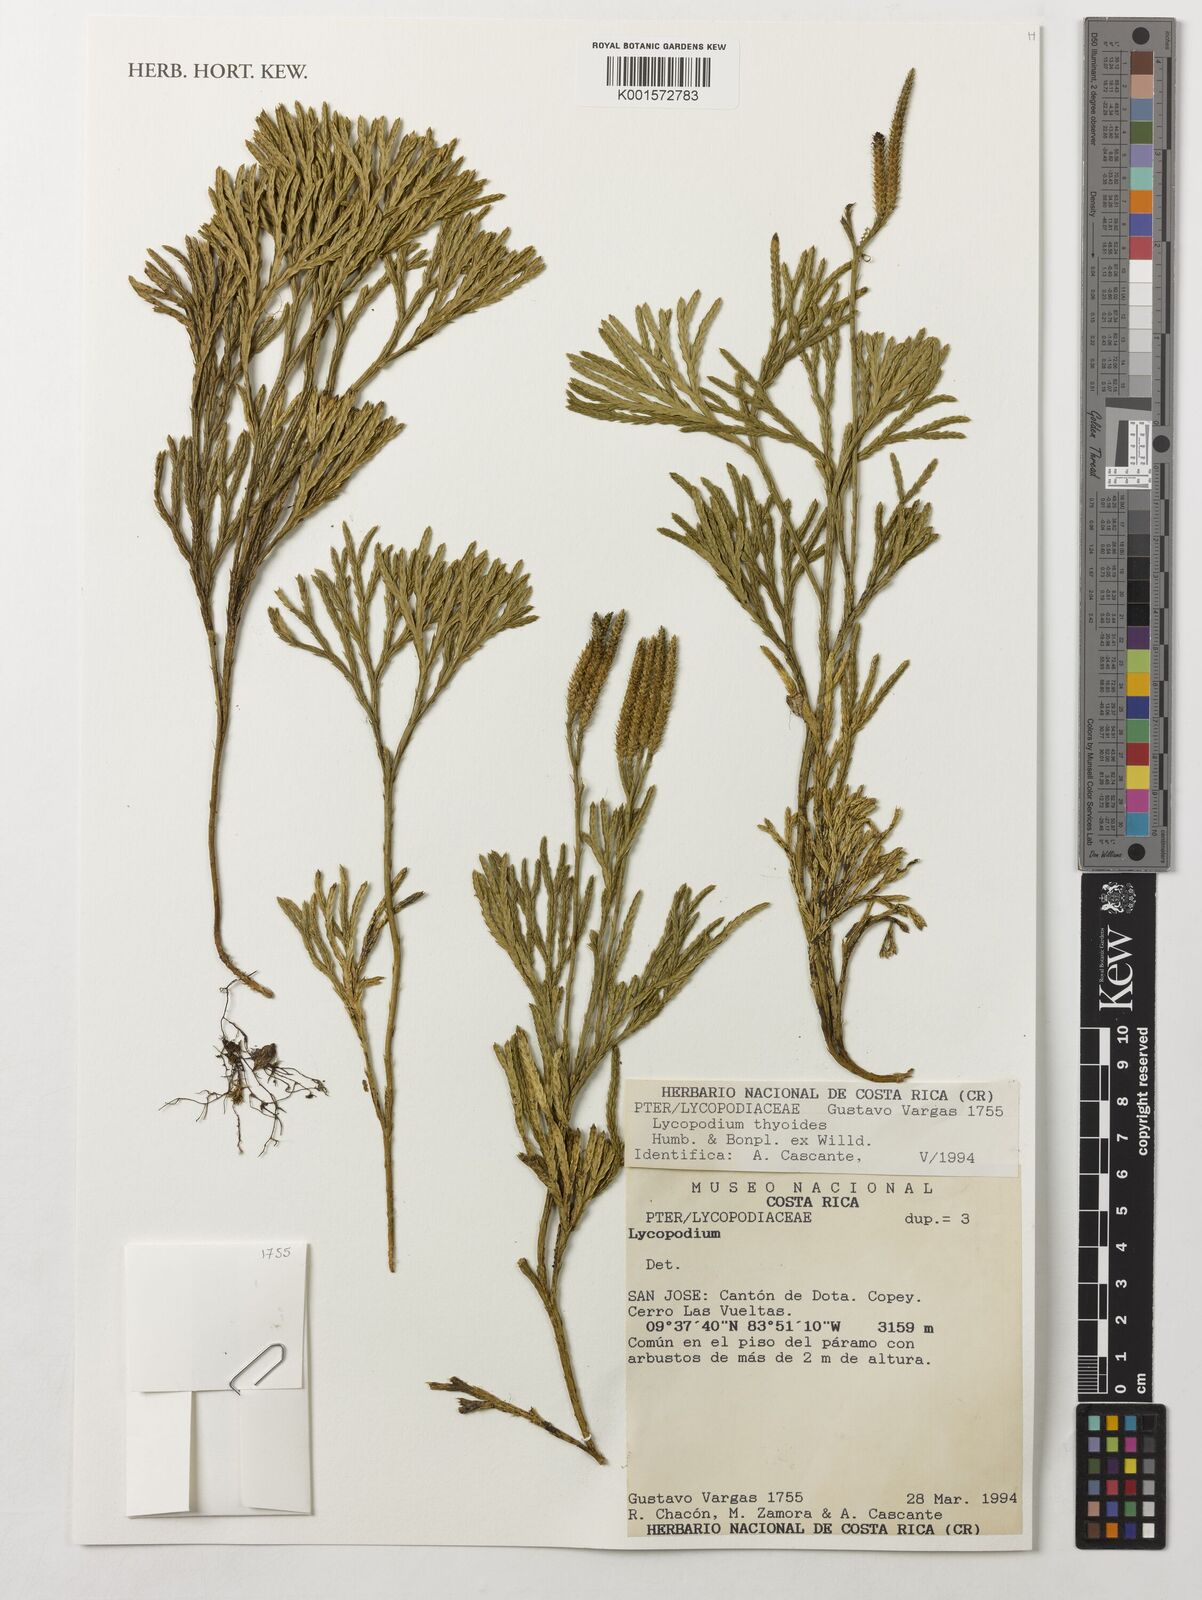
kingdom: Plantae
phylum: Tracheophyta
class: Lycopodiopsida
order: Lycopodiales
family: Lycopodiaceae
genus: Diphasiastrum
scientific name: Diphasiastrum thyoides
